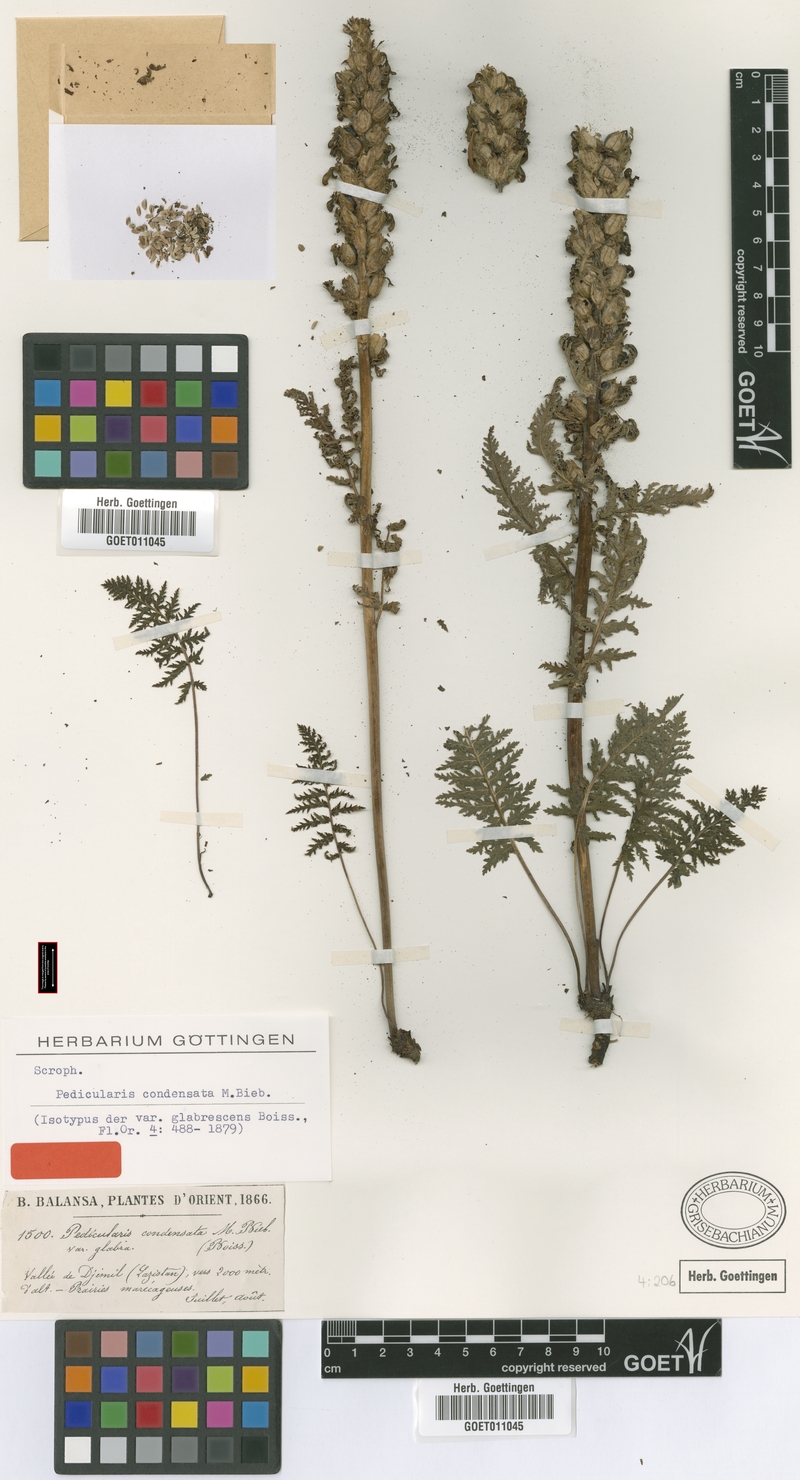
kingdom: Plantae
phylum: Tracheophyta
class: Magnoliopsida
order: Lamiales
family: Orobanchaceae
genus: Pedicularis
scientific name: Pedicularis condensata
